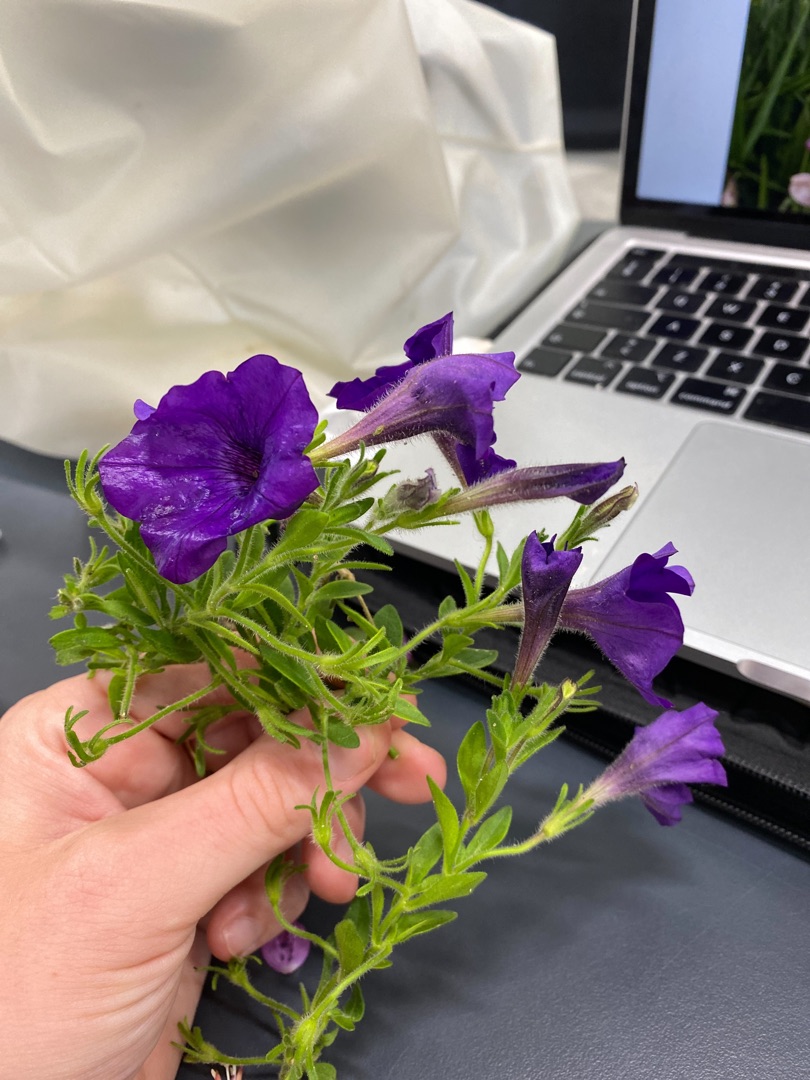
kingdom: Plantae
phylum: Tracheophyta
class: Magnoliopsida
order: Solanales
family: Solanaceae
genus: Petunia
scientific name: Petunia atkinsiana
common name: Have-petunie
